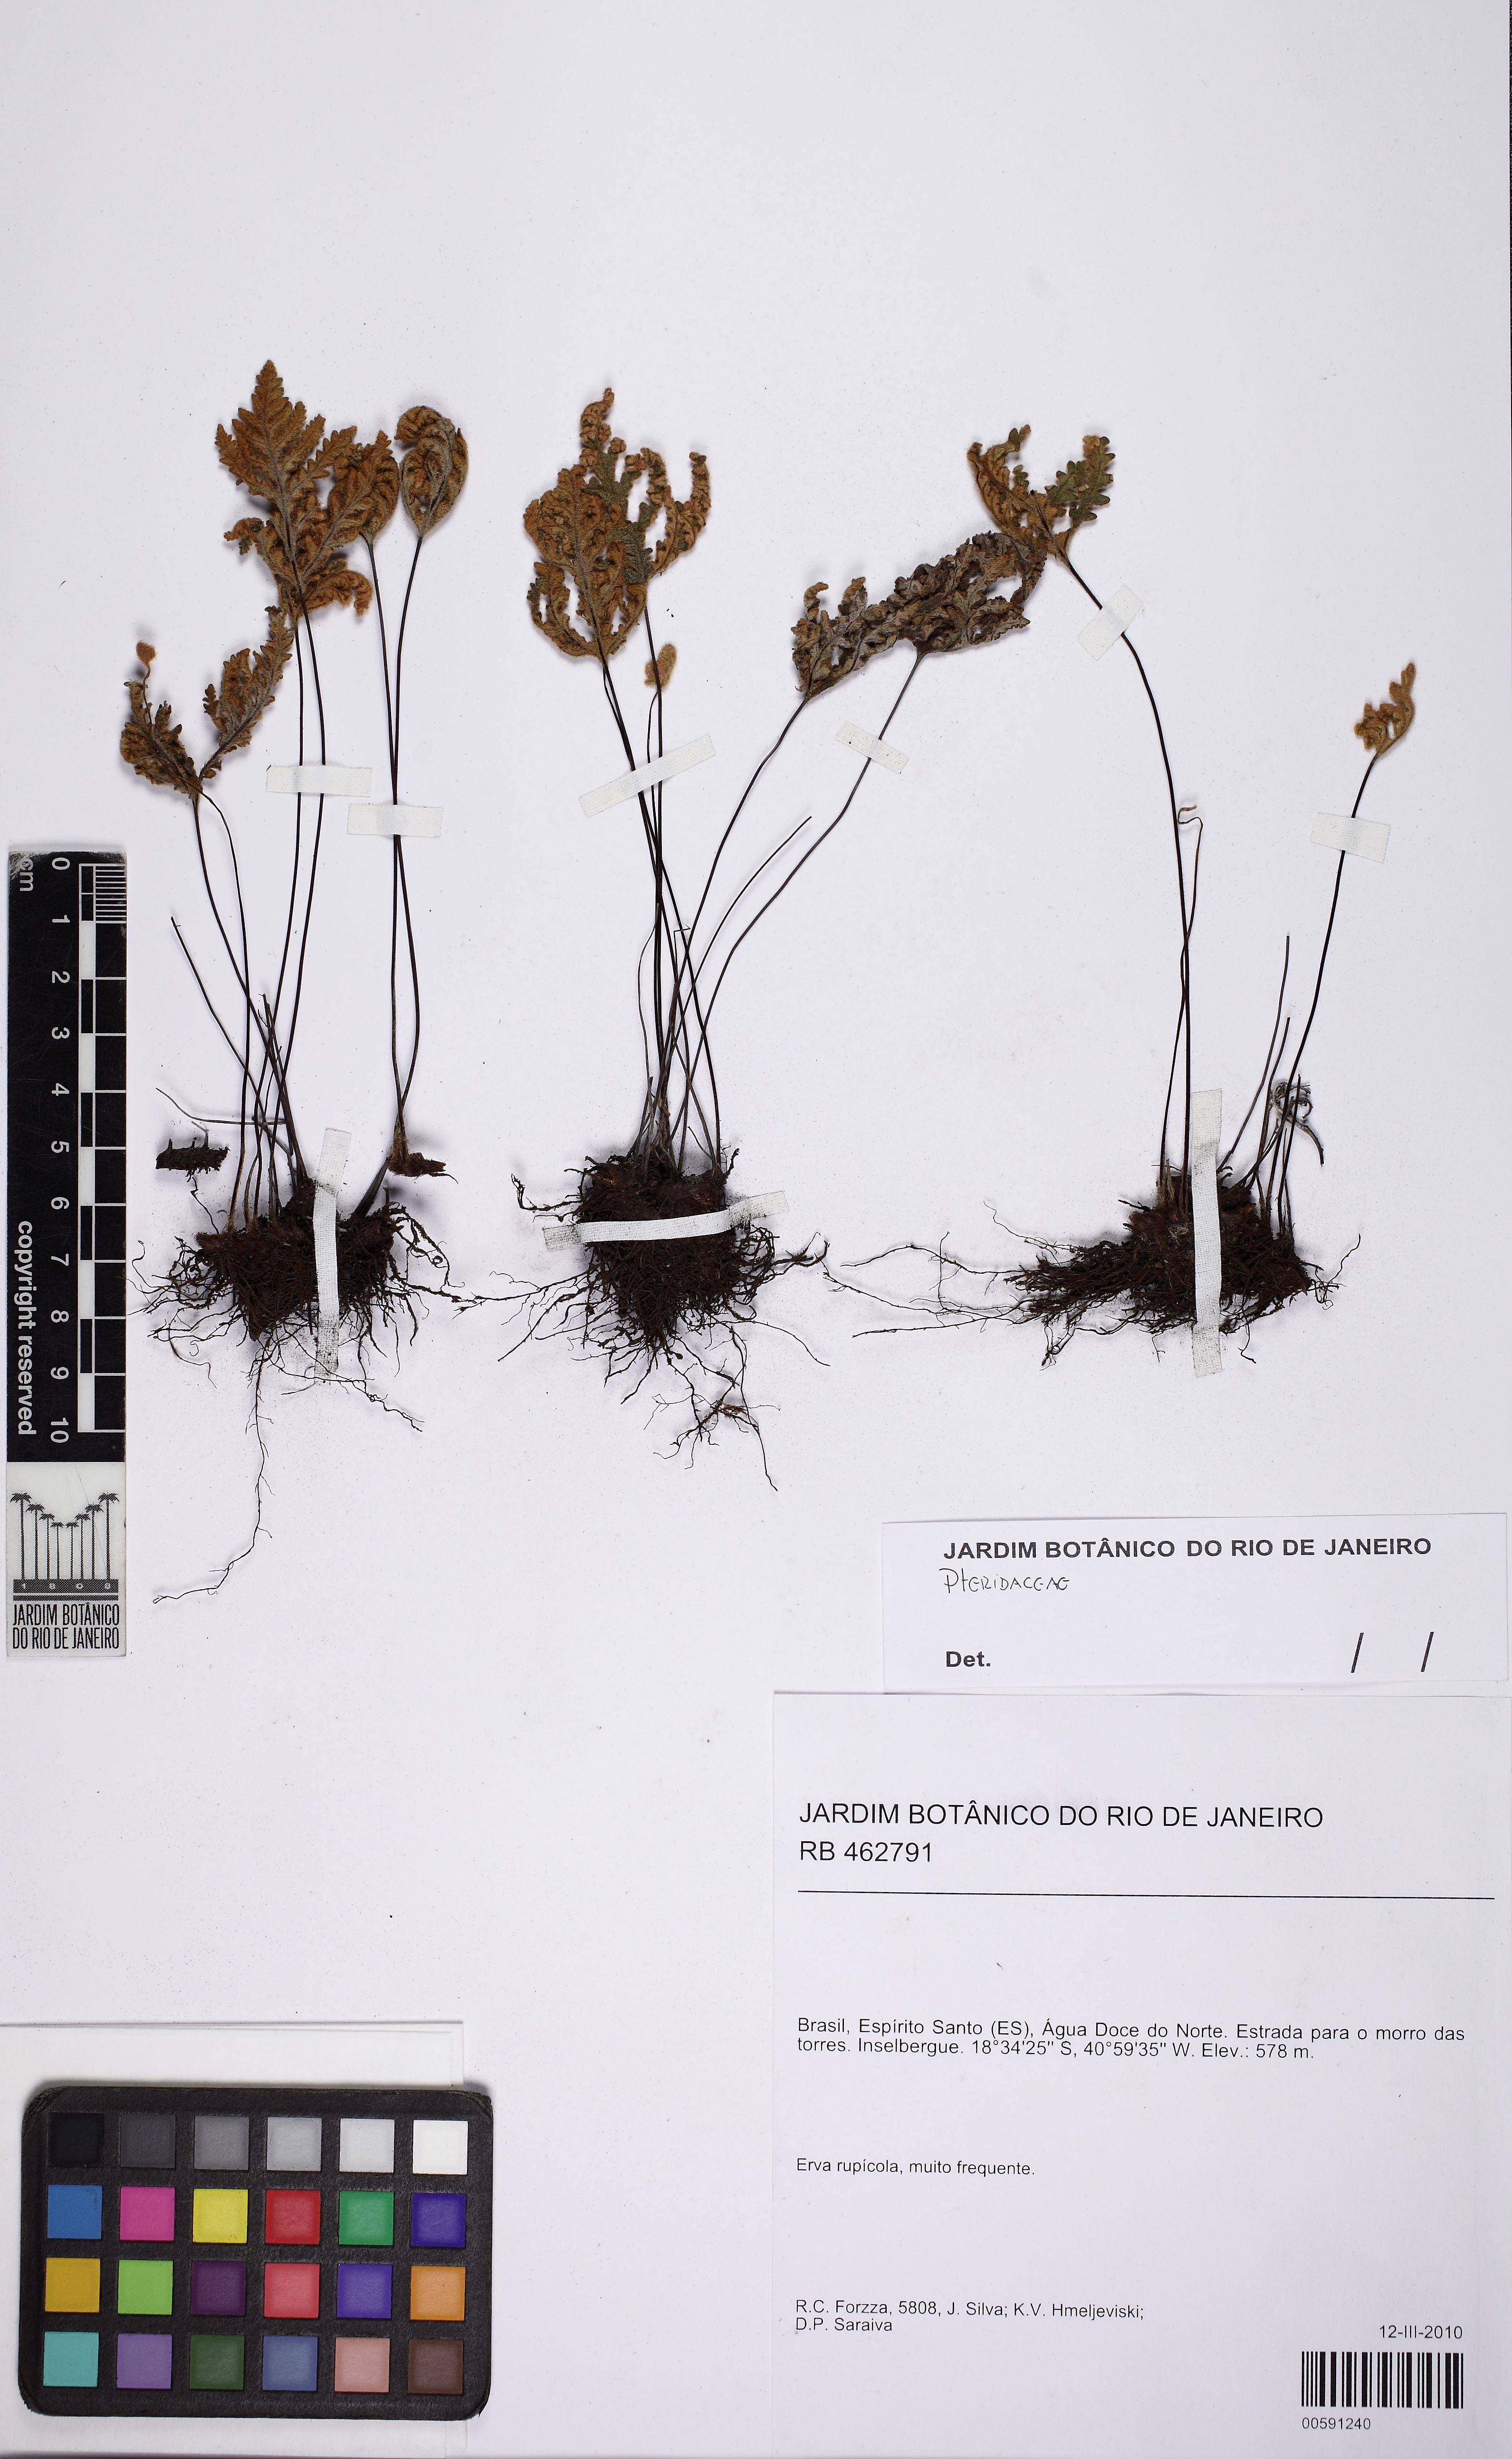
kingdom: Plantae
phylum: Tracheophyta
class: Polypodiopsida
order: Polypodiales
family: Pteridaceae
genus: Cheilanthes
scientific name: Cheilanthes
